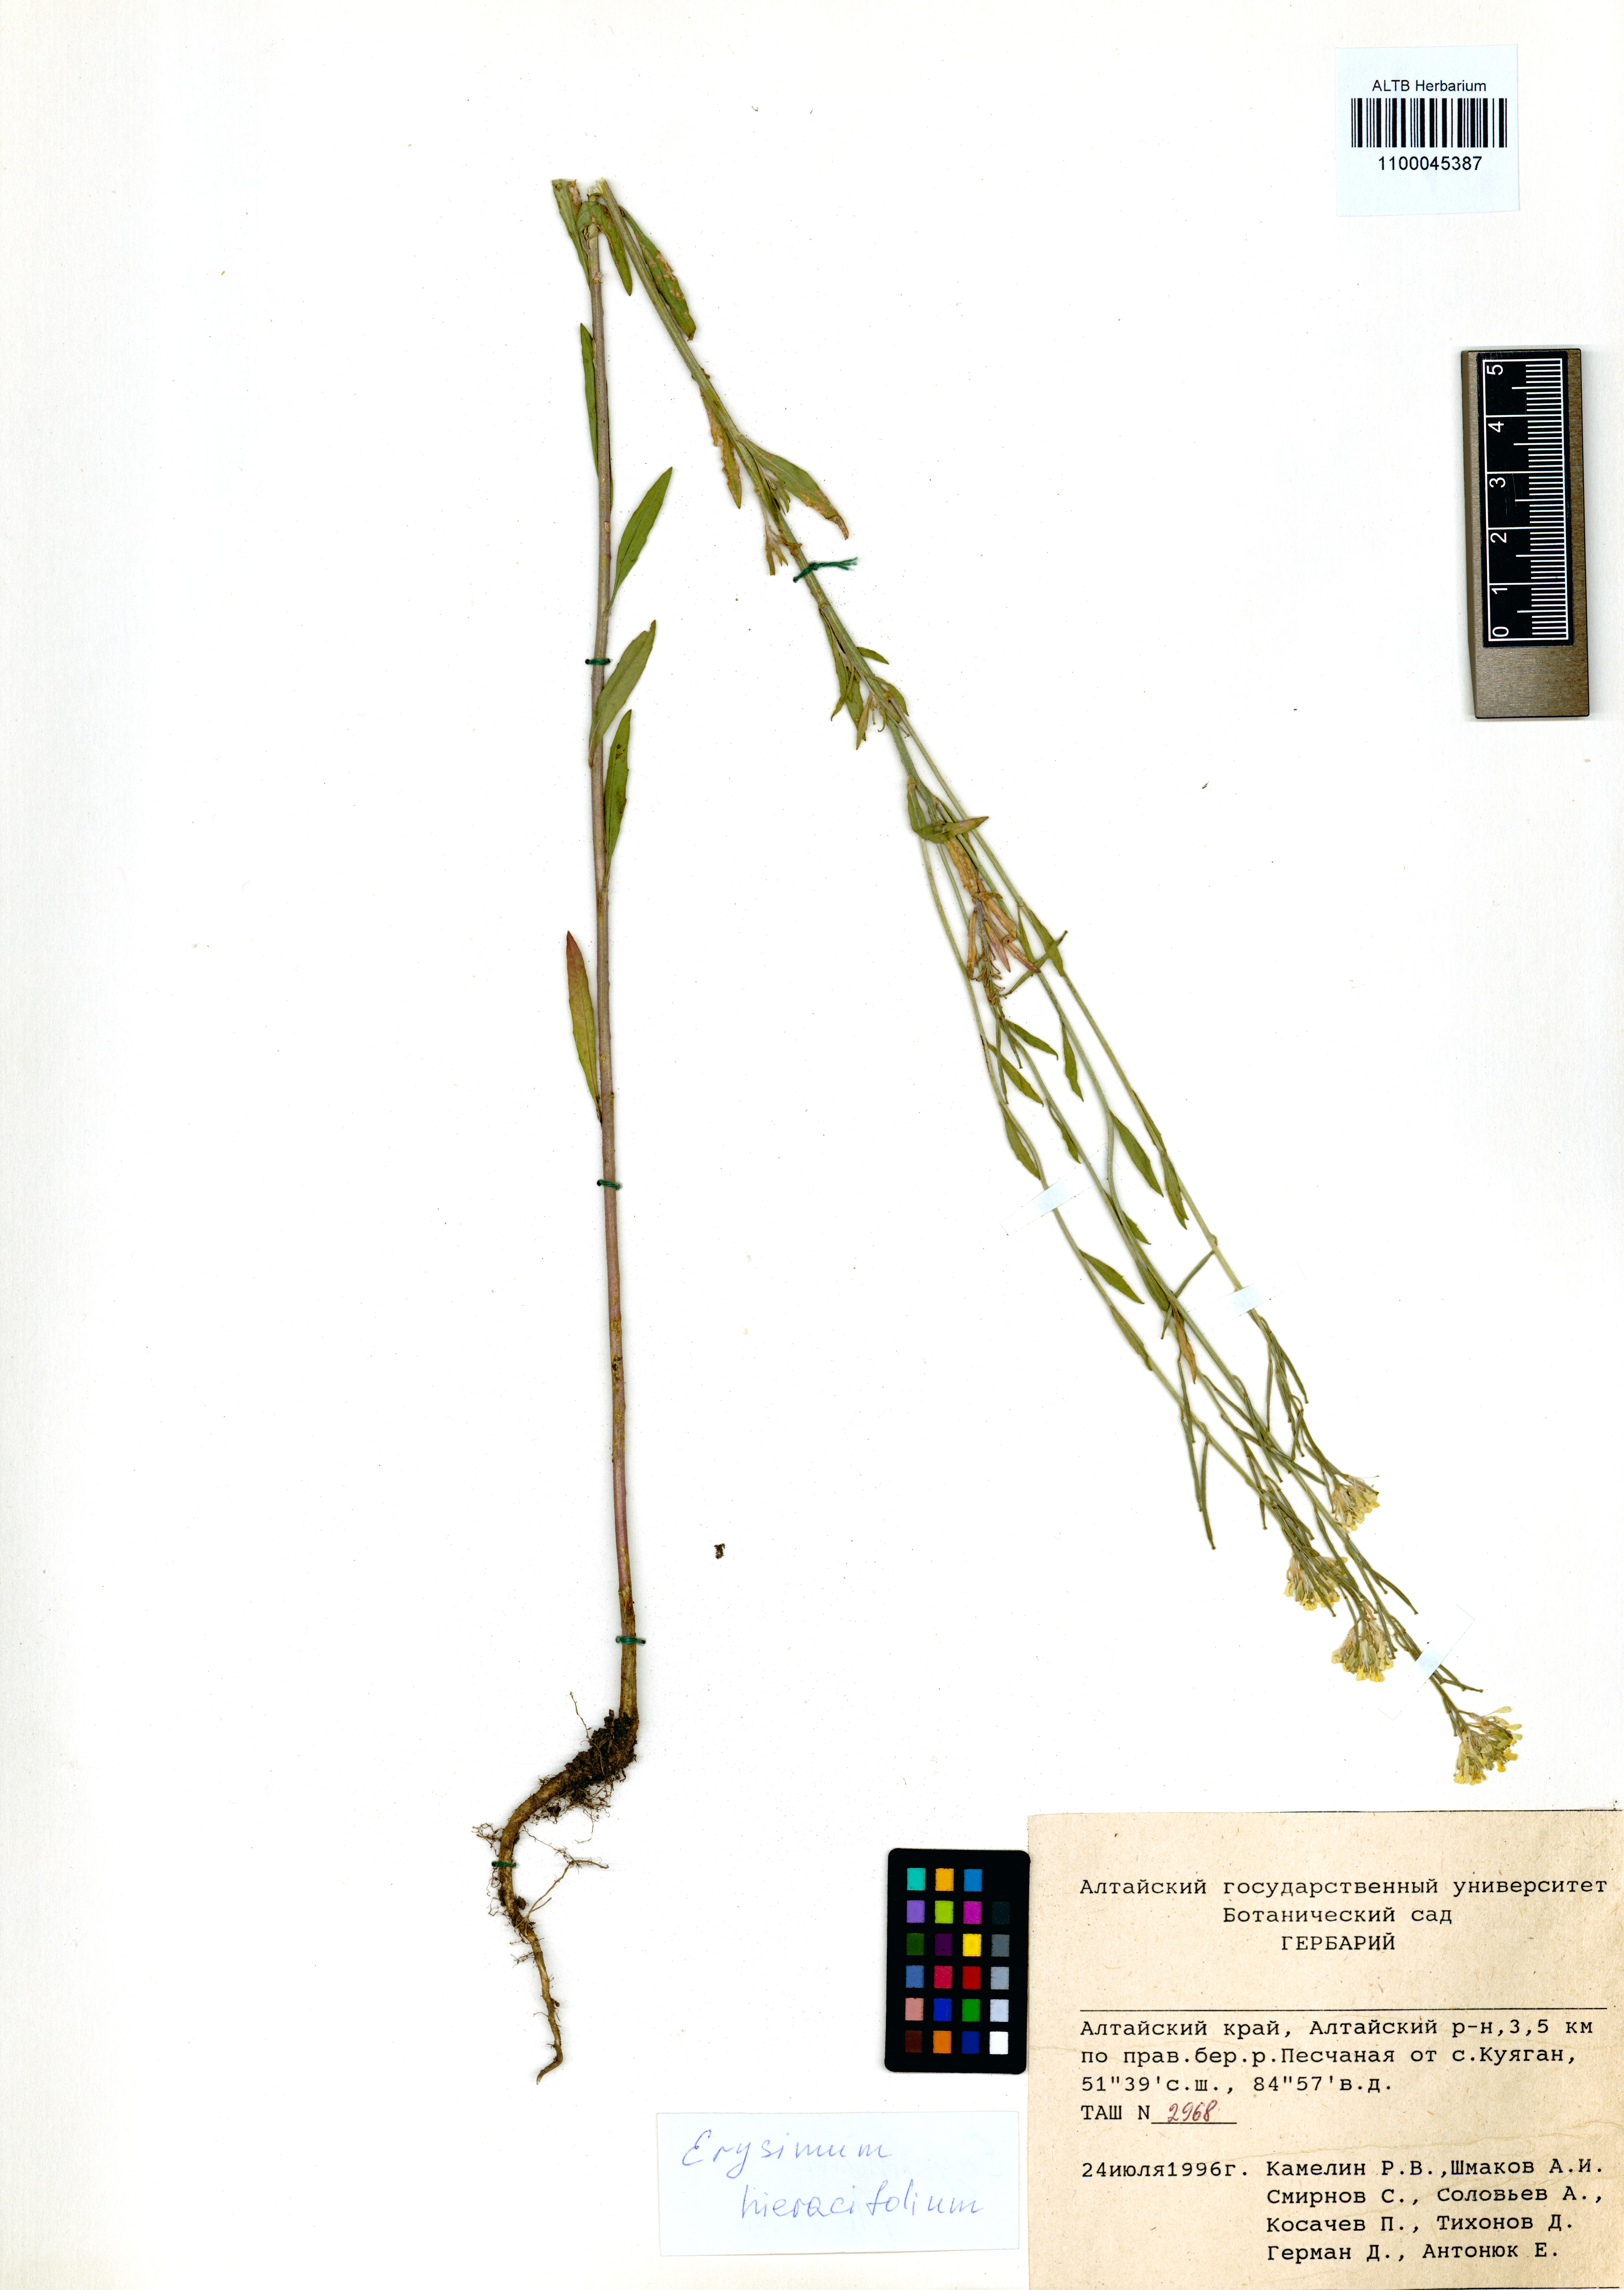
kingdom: Plantae
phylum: Tracheophyta
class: Magnoliopsida
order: Brassicales
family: Brassicaceae
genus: Erysimum
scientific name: Erysimum hieraciifolium
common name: European wallflower
